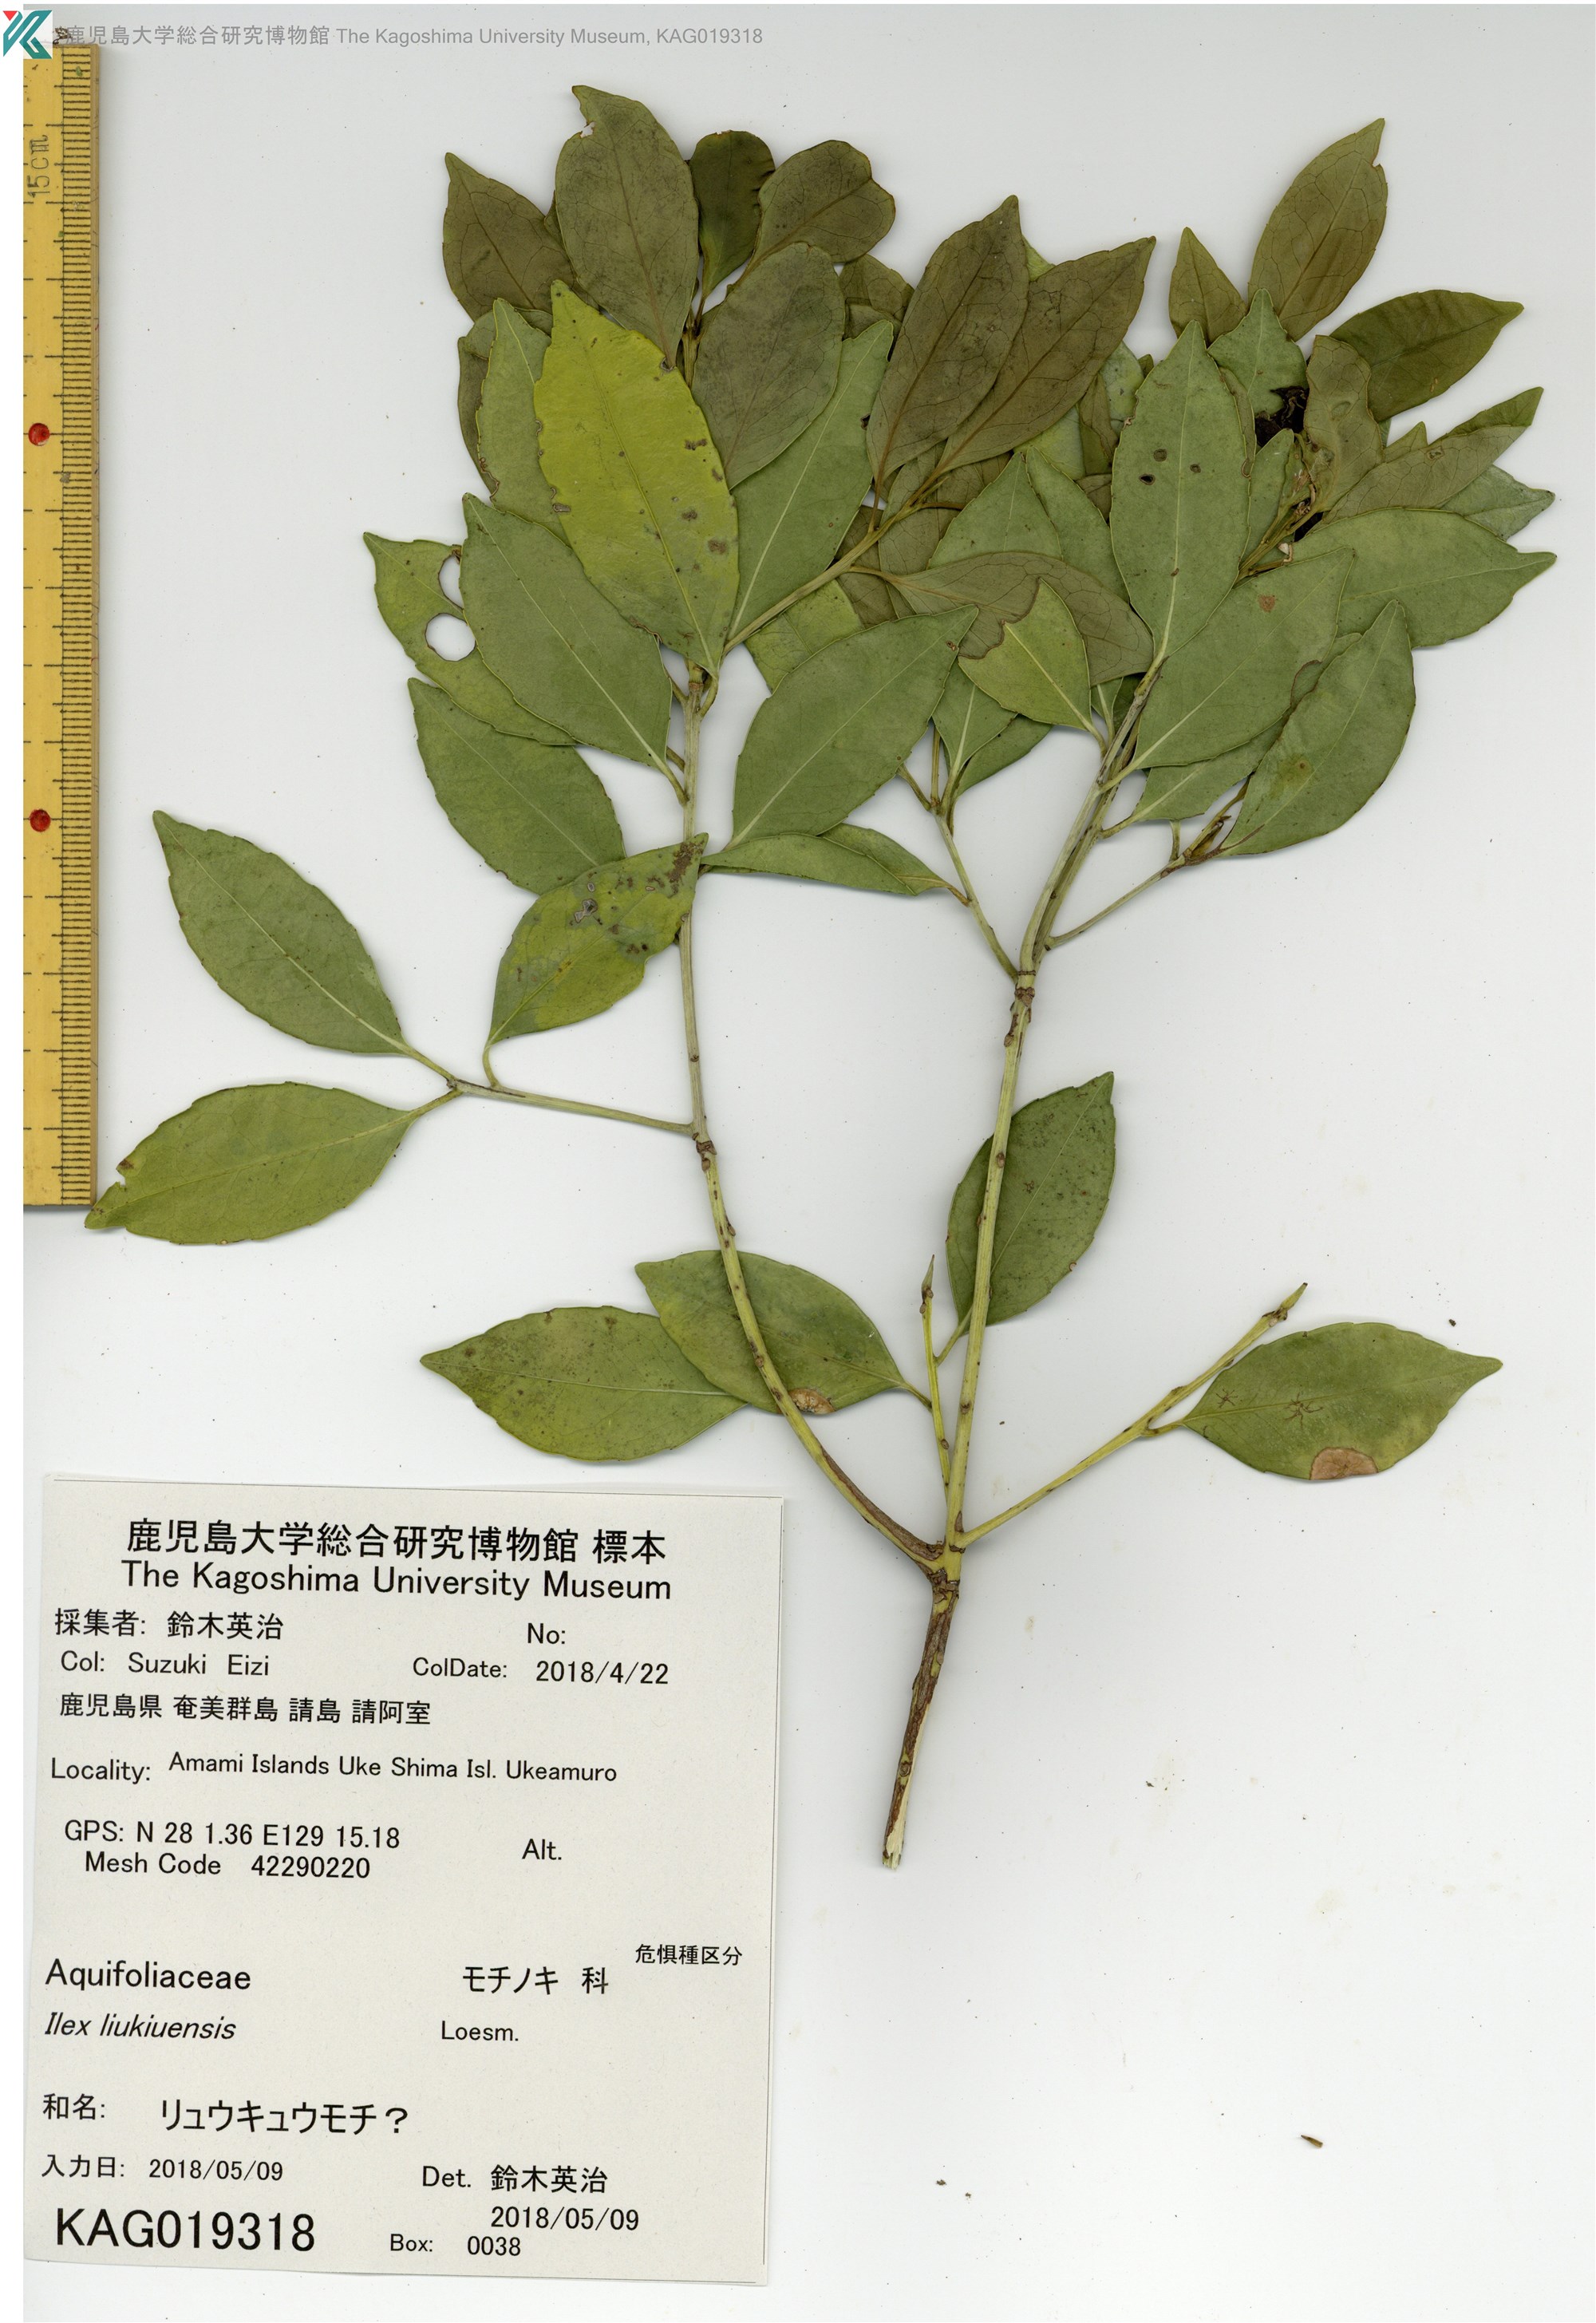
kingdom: Plantae
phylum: Tracheophyta
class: Magnoliopsida
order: Ericales
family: Symplocaceae
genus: Symplocos
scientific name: Symplocos nakaharae
